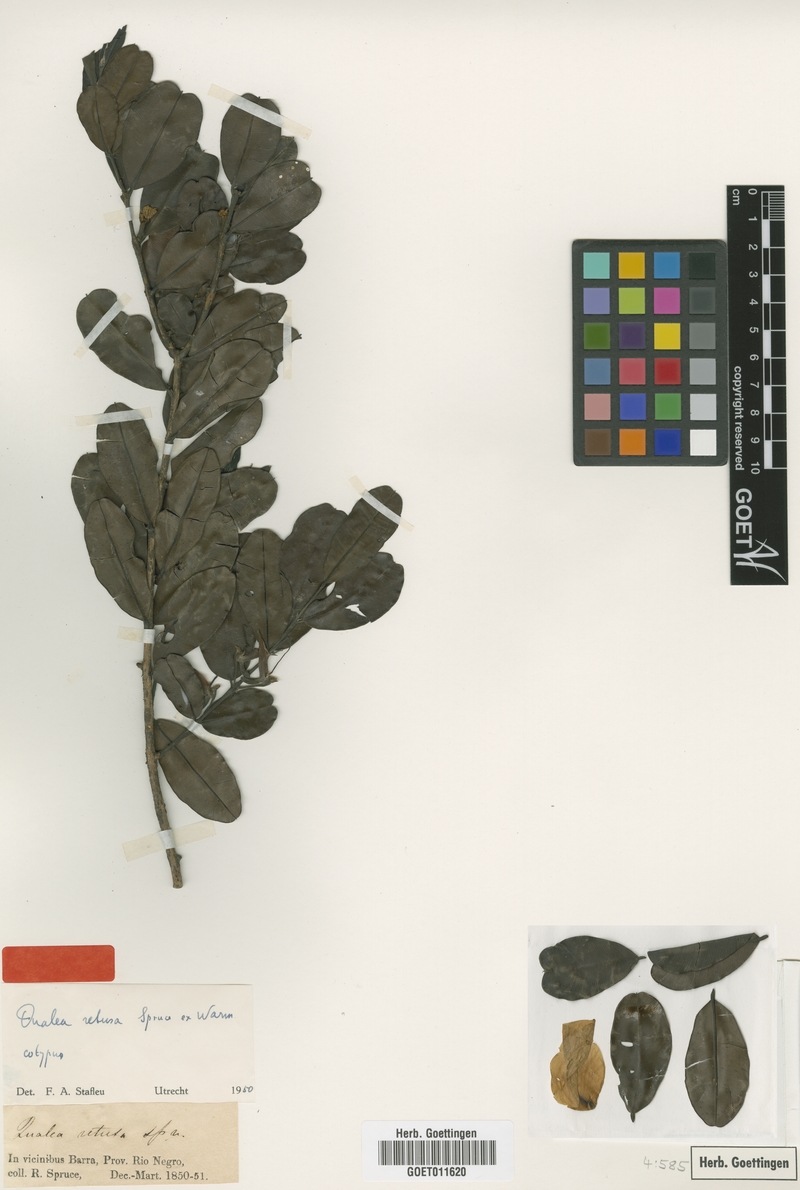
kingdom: Plantae
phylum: Tracheophyta
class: Magnoliopsida
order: Myrtales
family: Vochysiaceae
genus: Ruizterania
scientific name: Ruizterania retusa
